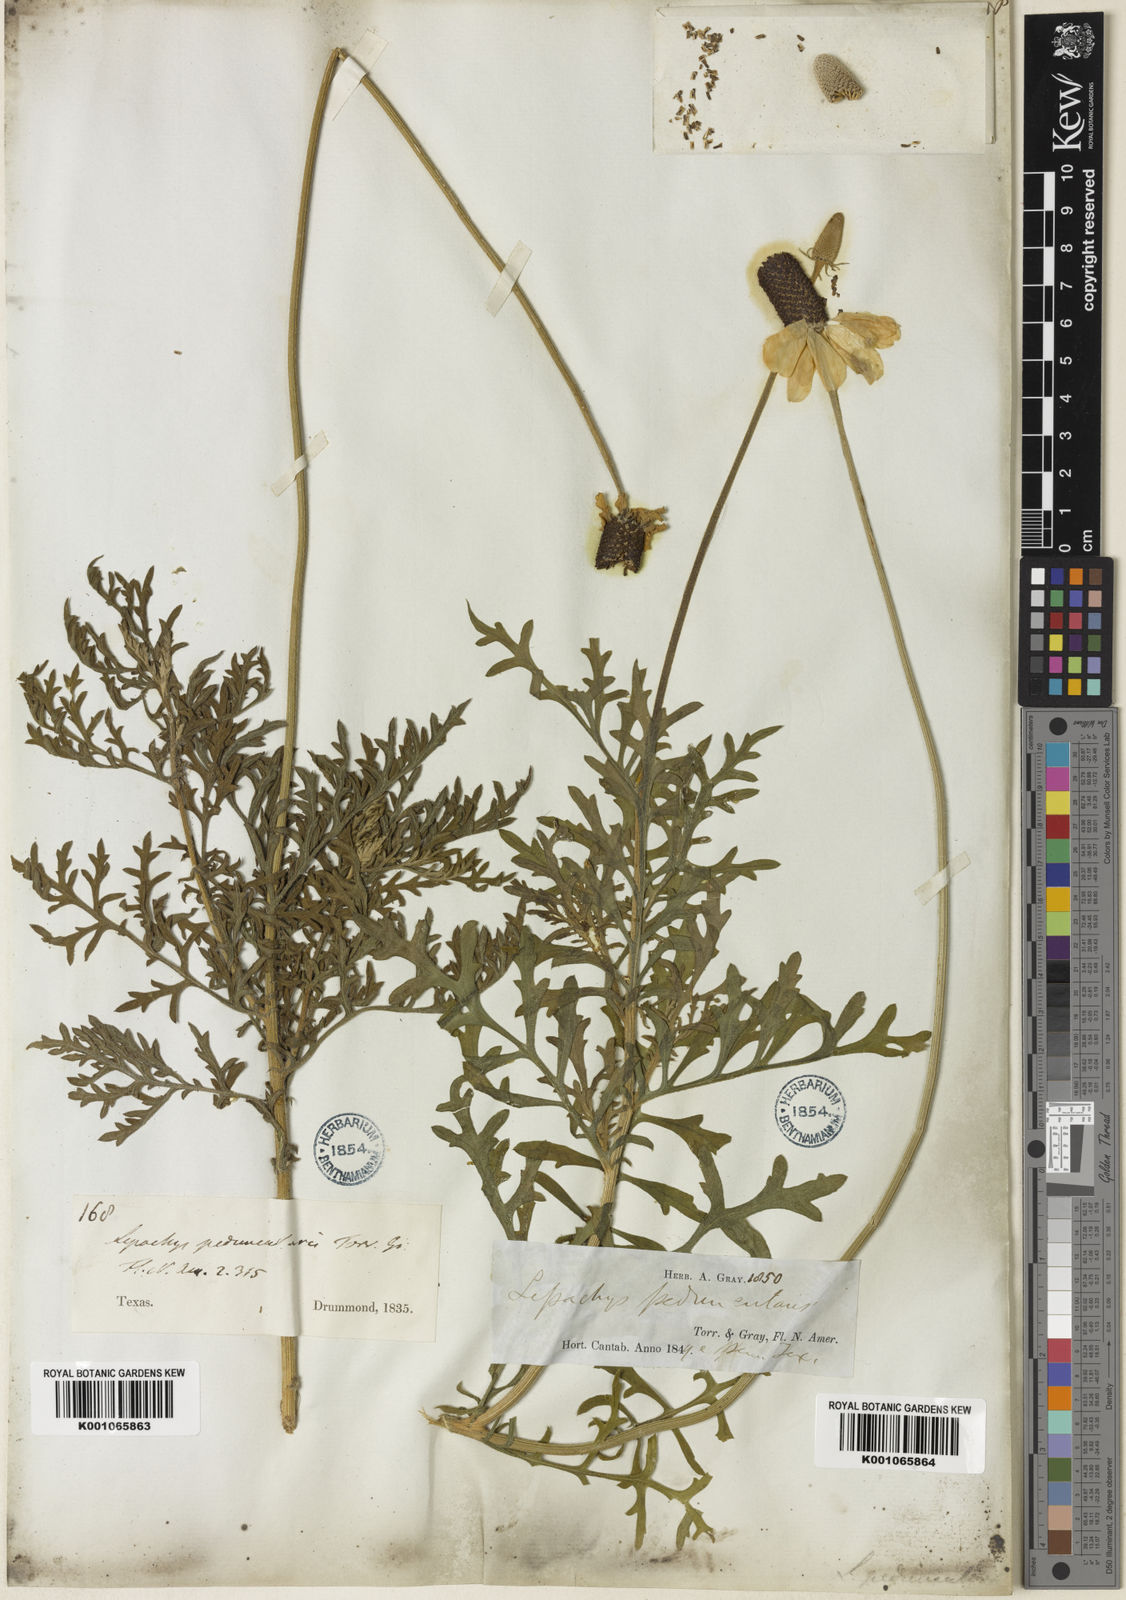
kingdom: Plantae
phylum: Tracheophyta
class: Magnoliopsida
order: Asterales
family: Asteraceae
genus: Ratibida
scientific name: Ratibida peduncularis
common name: Naked prairie-coneflower
